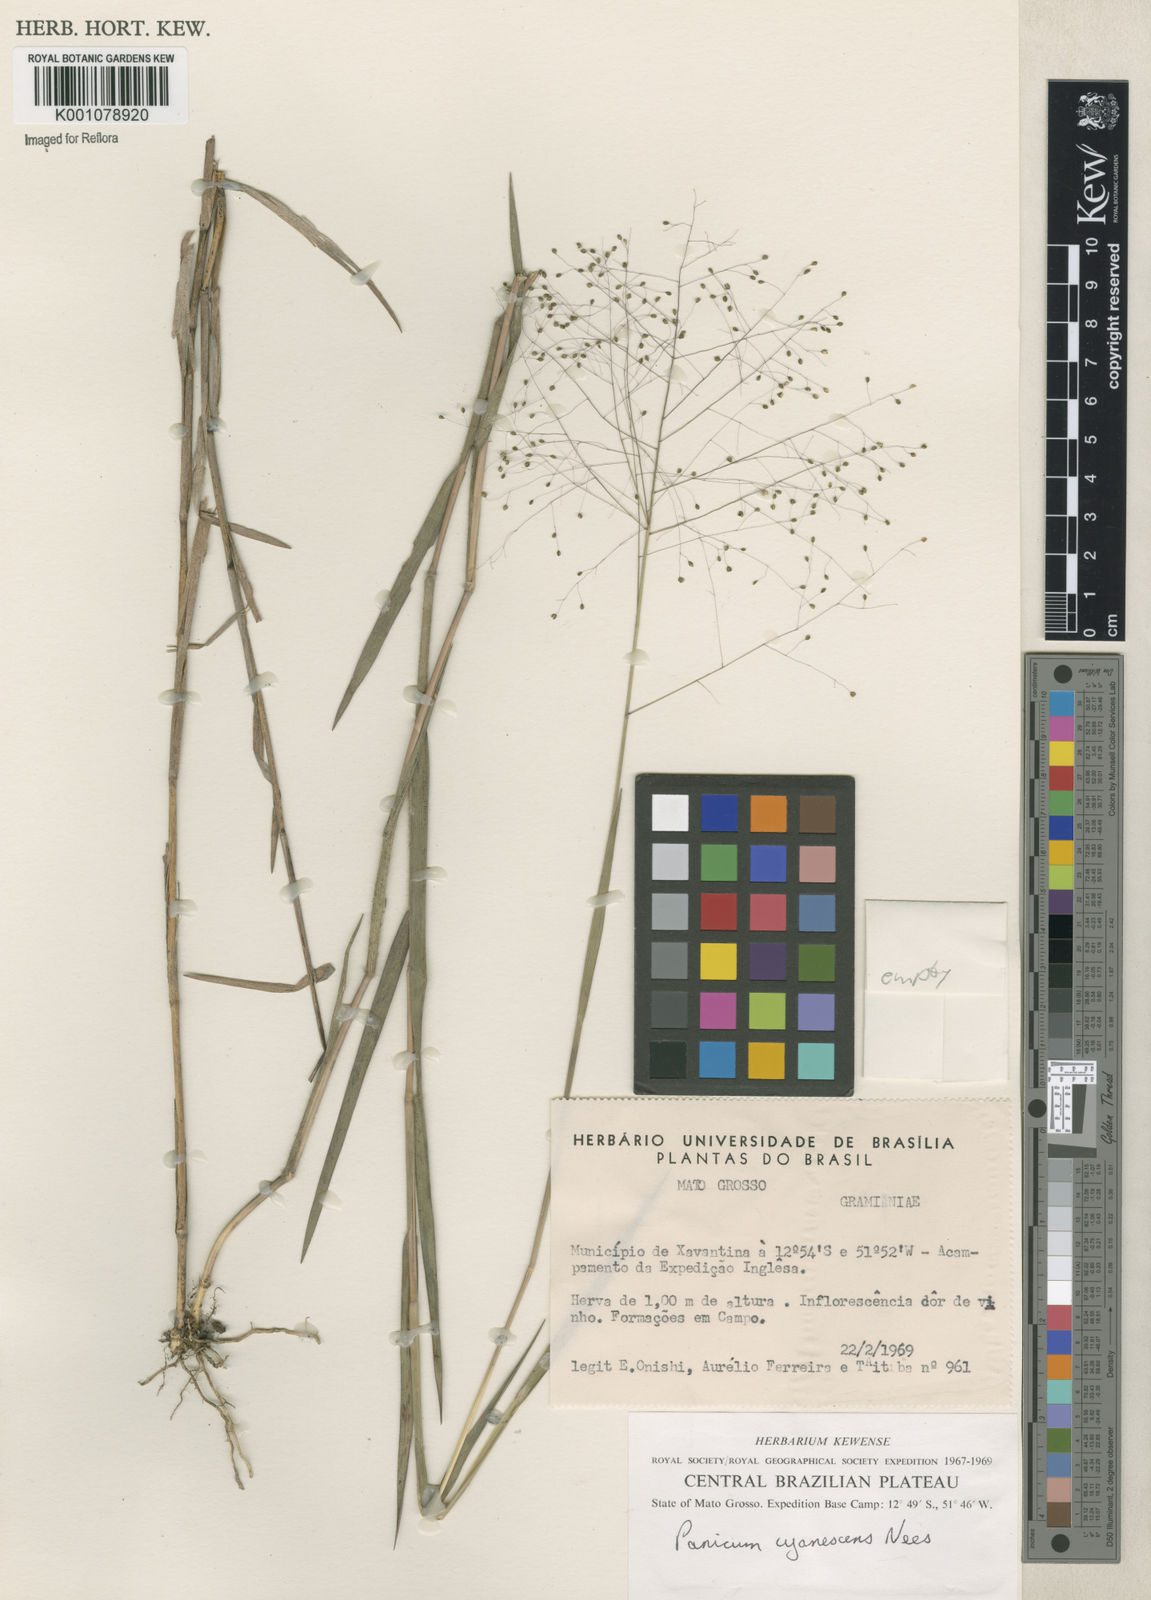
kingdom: Plantae
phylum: Tracheophyta
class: Liliopsida
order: Poales
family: Poaceae
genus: Trichanthecium
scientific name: Trichanthecium cyanescens
